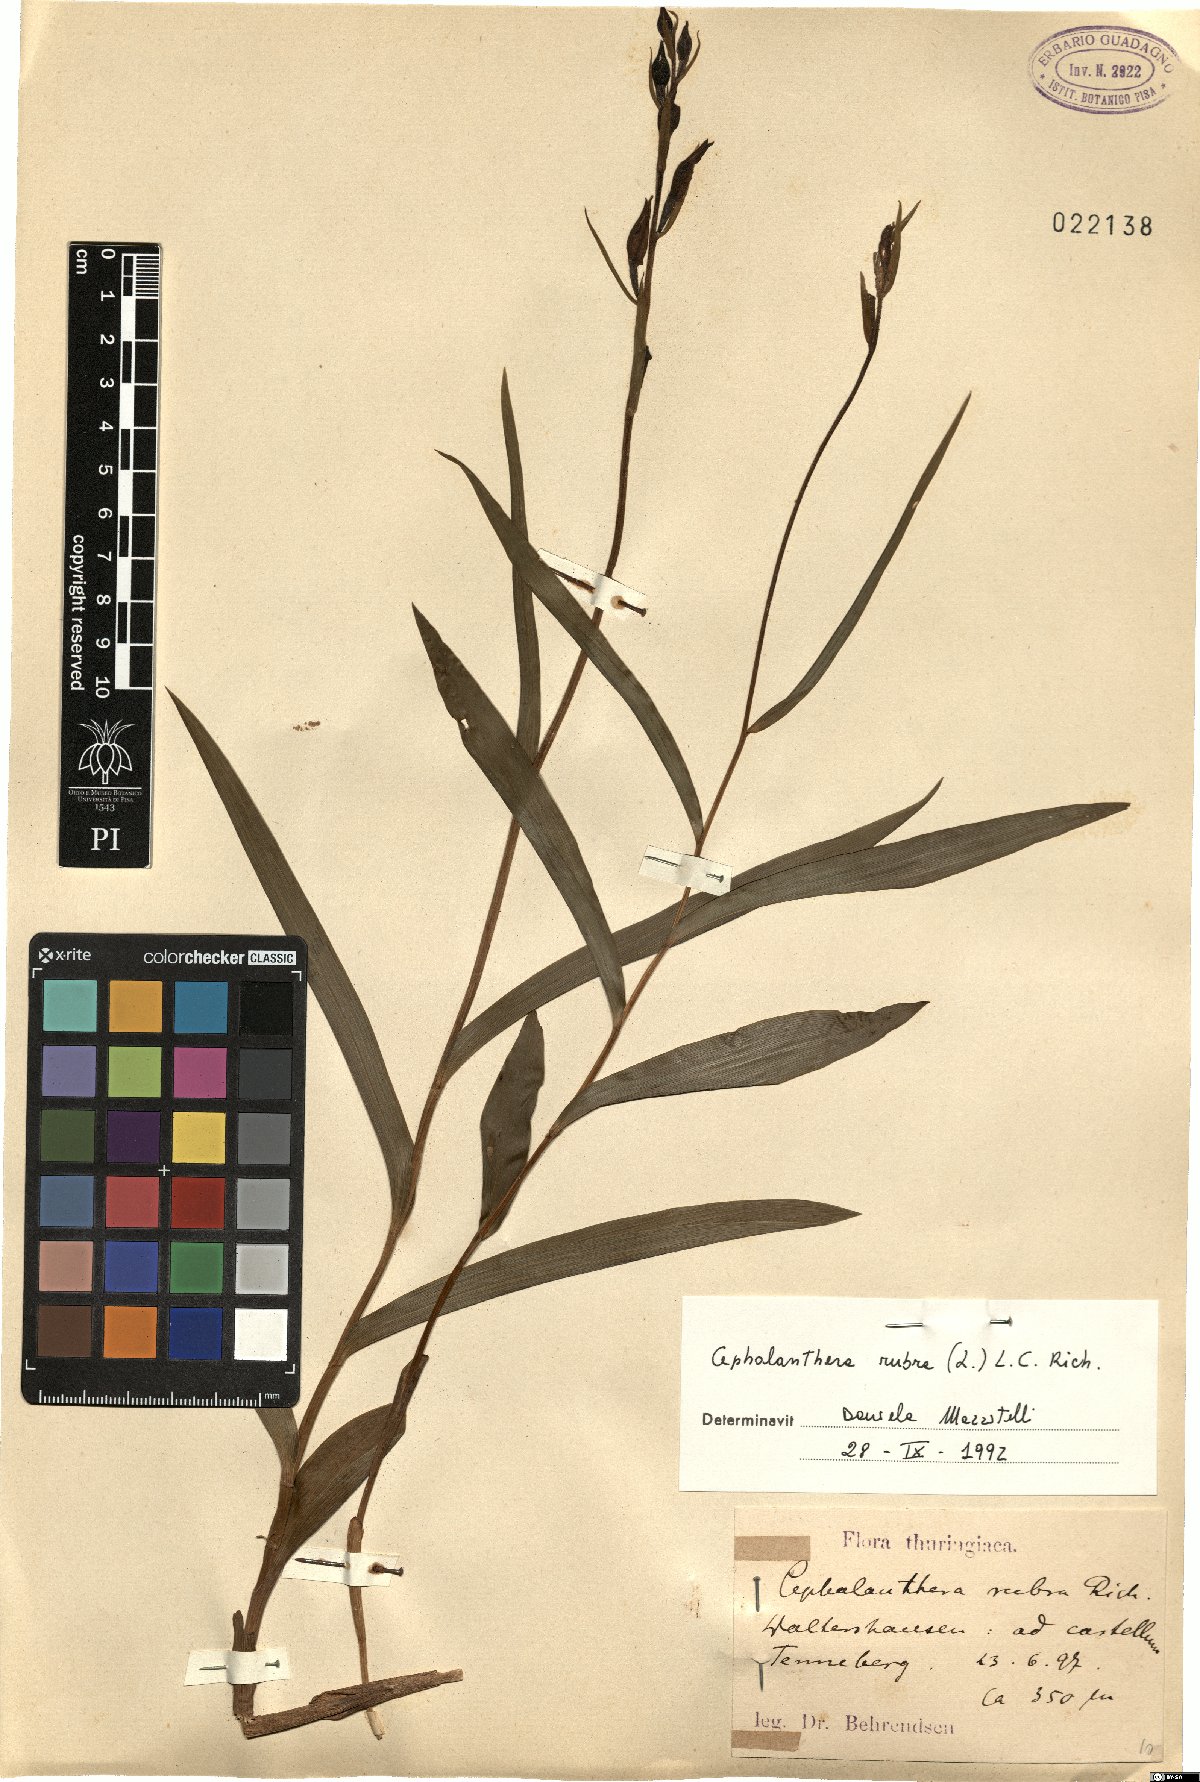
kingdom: Plantae
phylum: Tracheophyta
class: Liliopsida
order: Asparagales
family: Orchidaceae
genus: Cephalanthera
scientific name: Cephalanthera rubra
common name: Red helleborine
